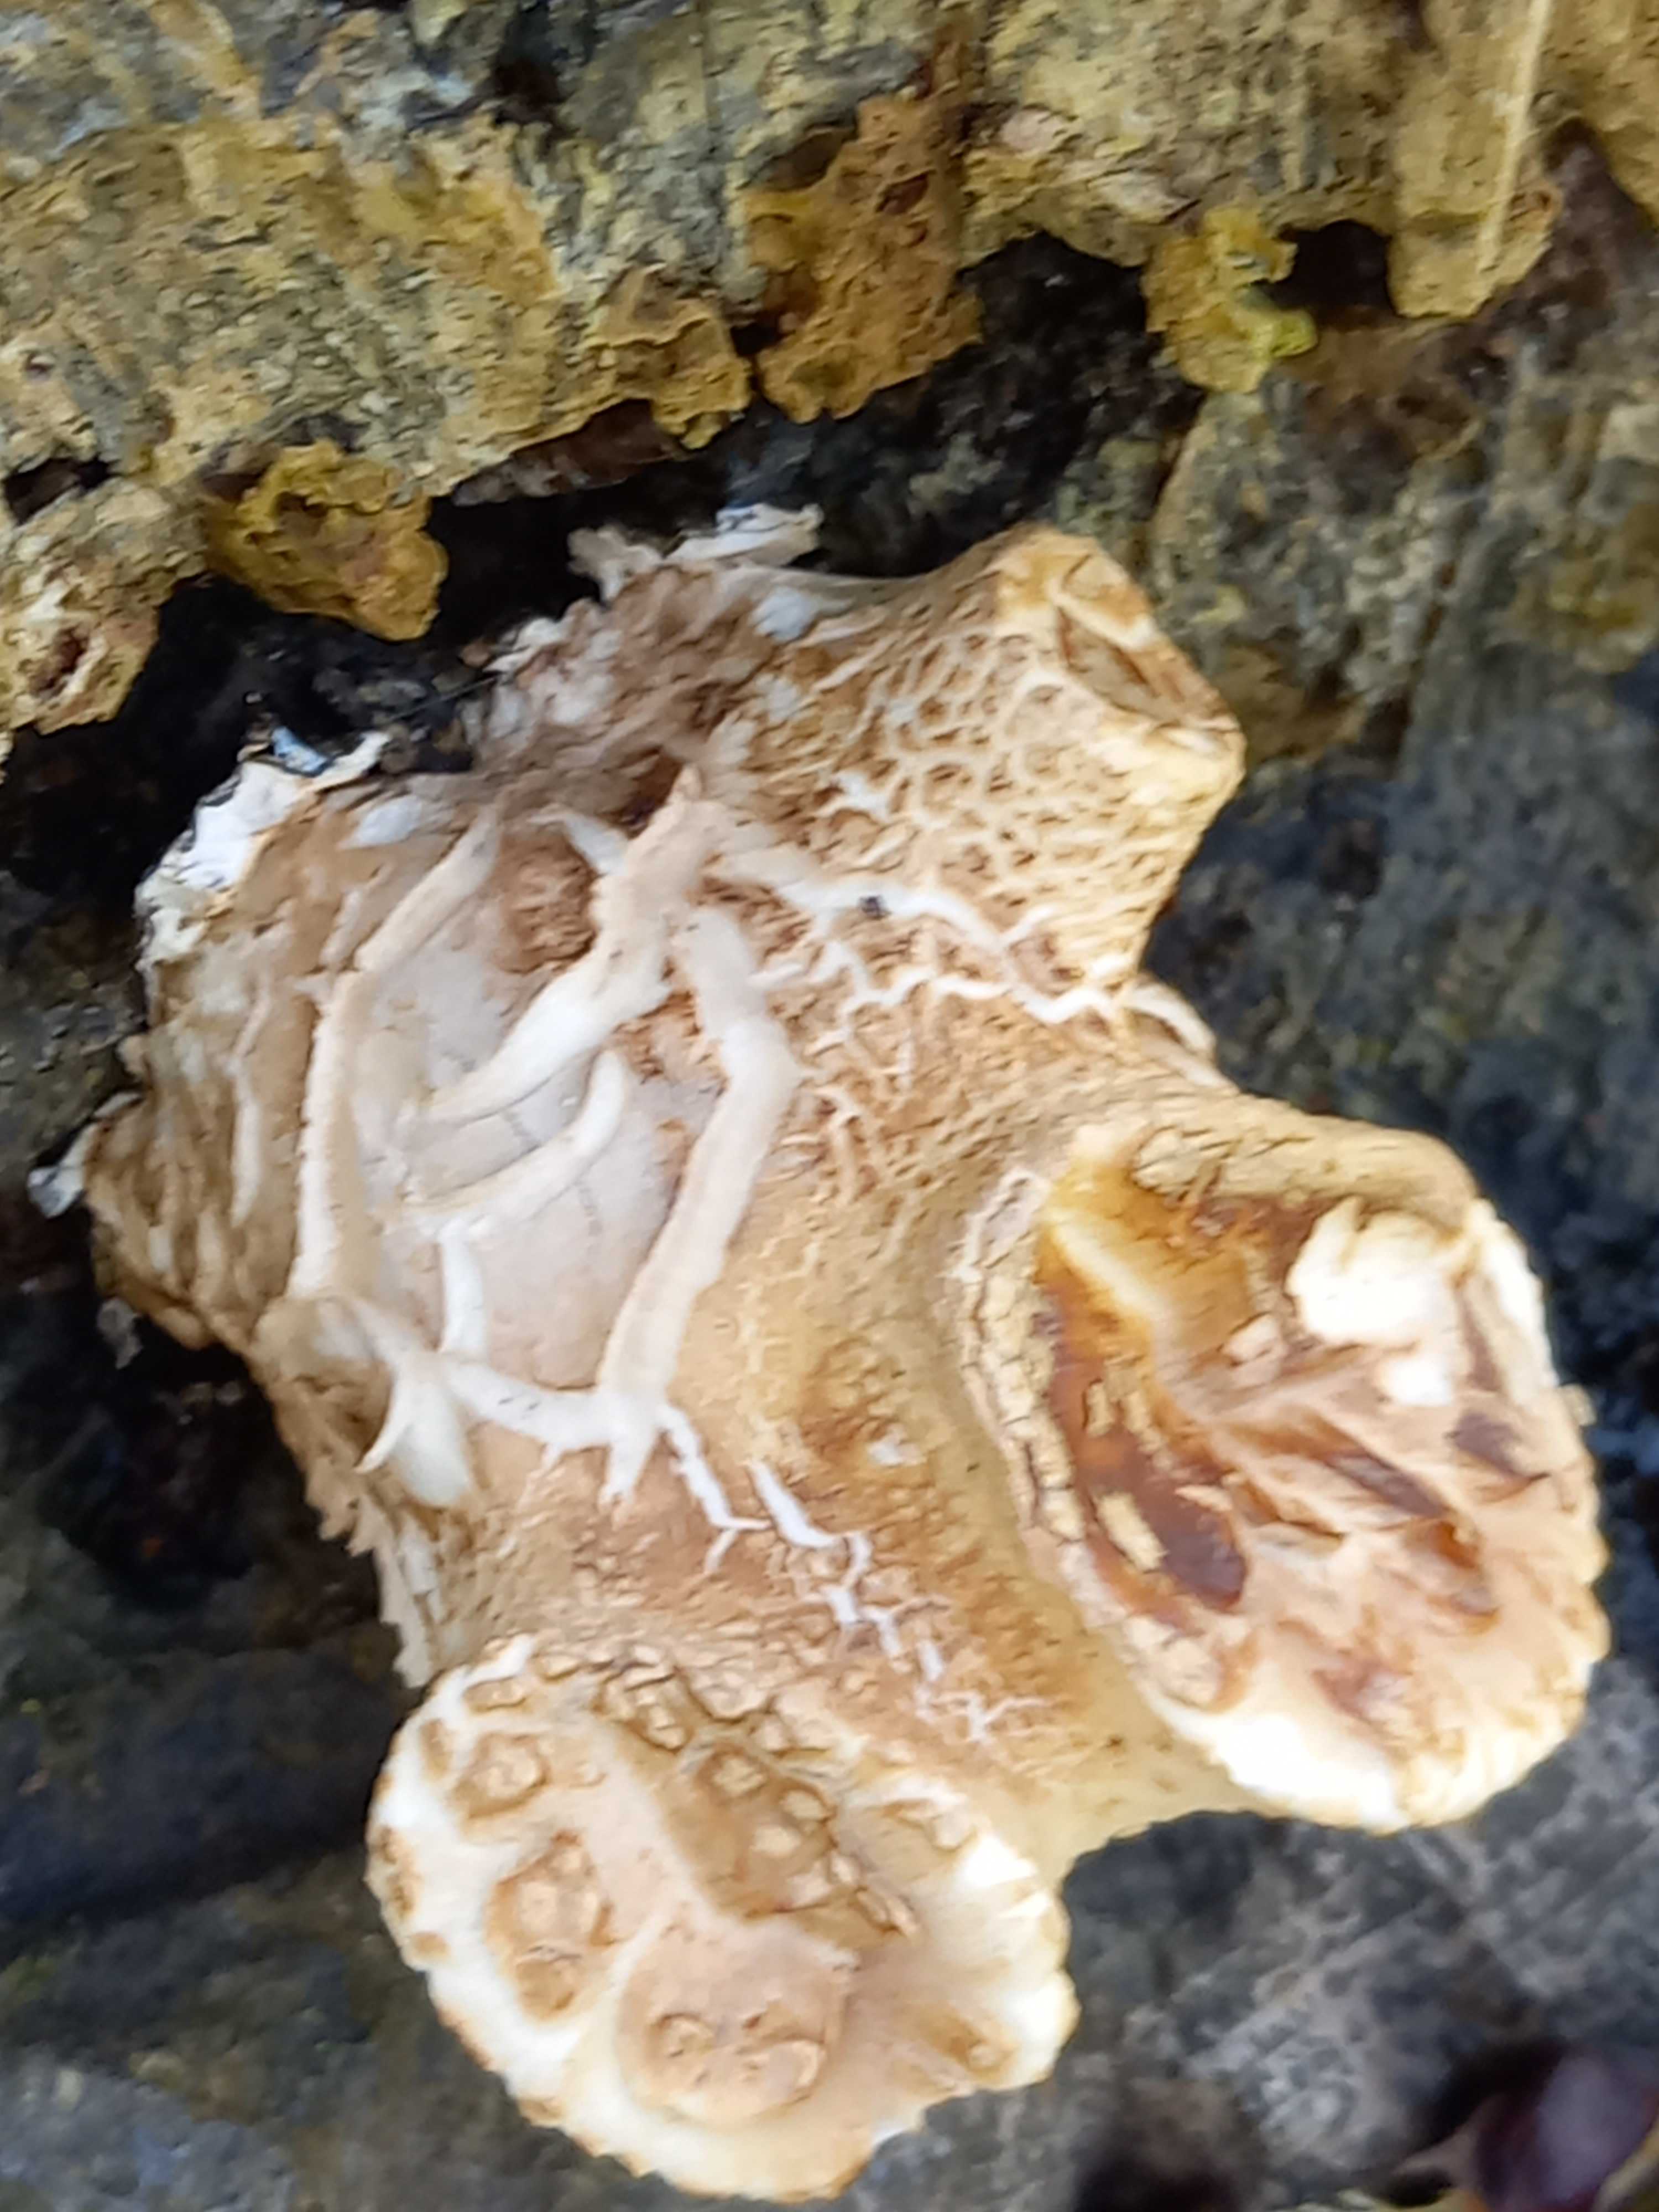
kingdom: Fungi
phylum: Basidiomycota
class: Agaricomycetes
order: Polyporales
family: Polyporaceae
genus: Cerioporus
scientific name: Cerioporus squamosus
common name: skællet stilkporesvamp
